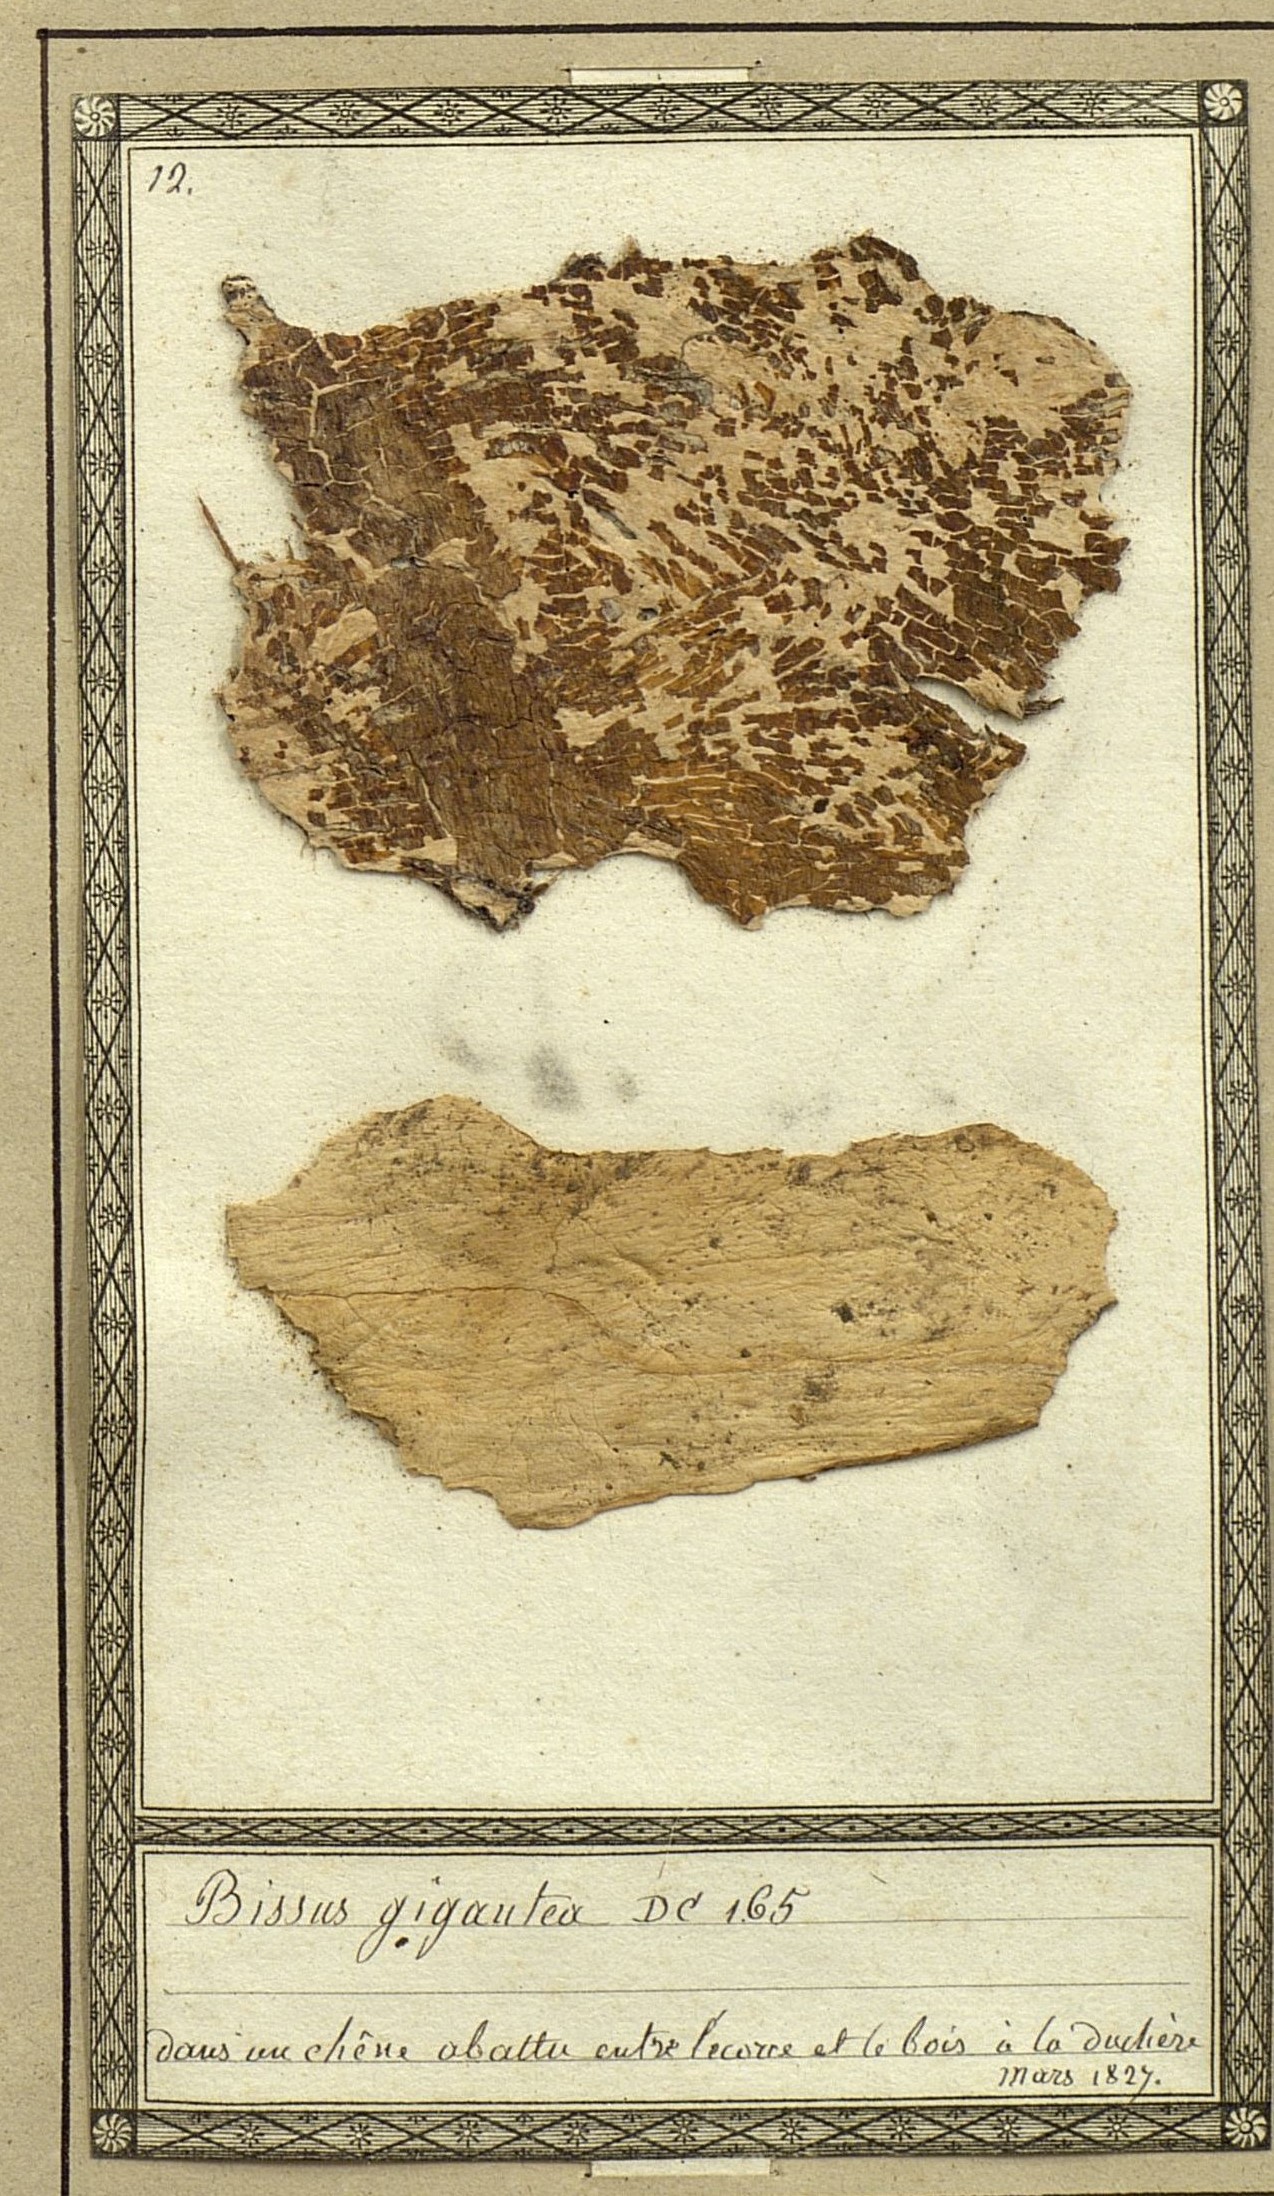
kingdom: Fungi
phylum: Basidiomycota
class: Agaricomycetes
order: Polyporales
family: Fomitopsidaceae
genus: Xylostroma
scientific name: Xylostroma giganteum
